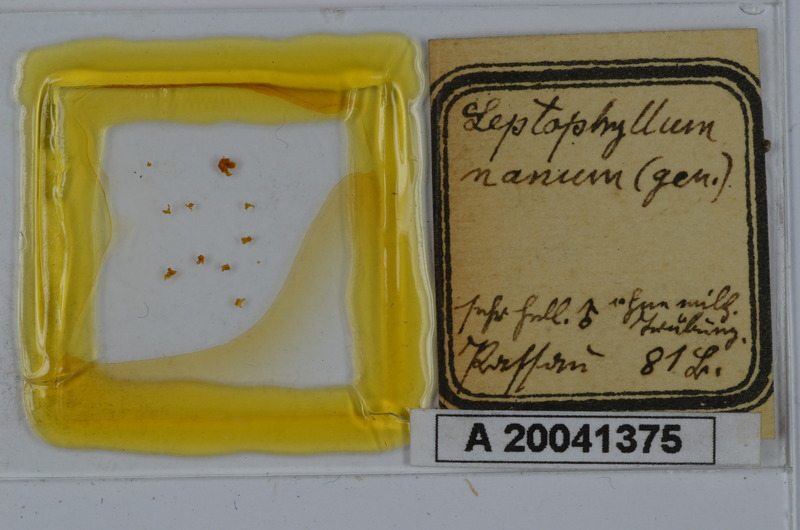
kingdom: Animalia
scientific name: Animalia
